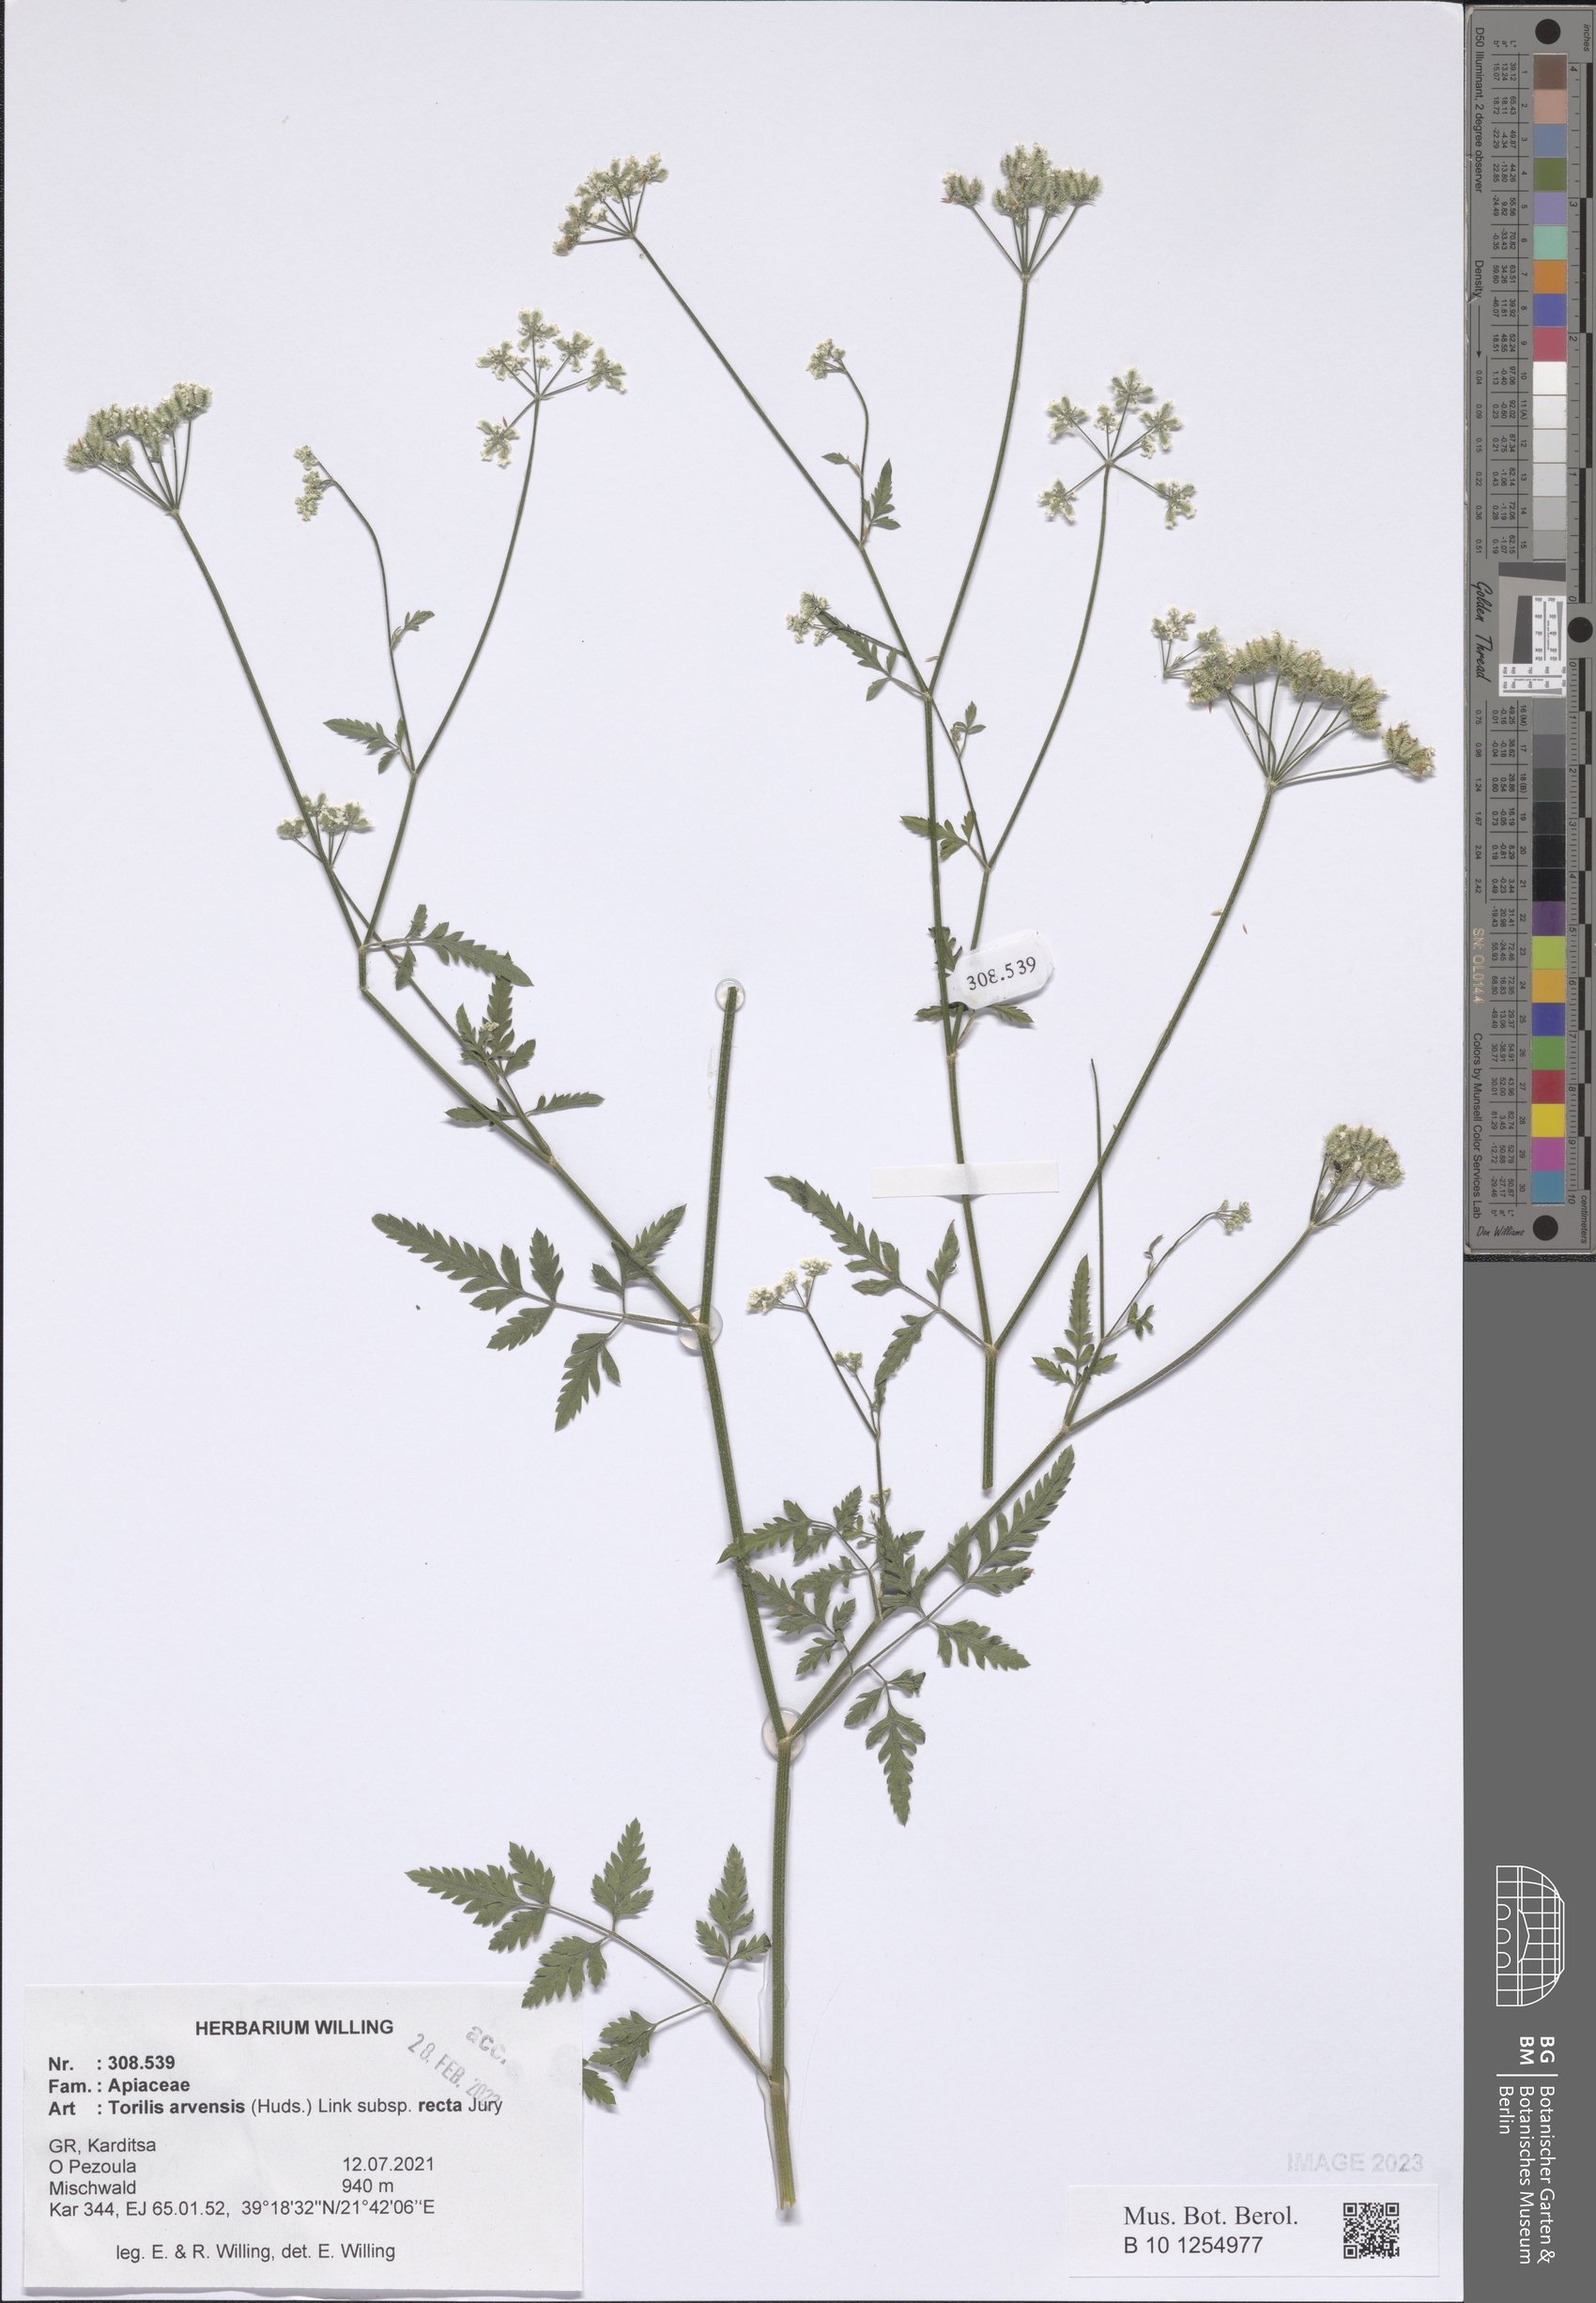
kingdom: Plantae
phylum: Tracheophyta
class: Magnoliopsida
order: Apiales
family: Apiaceae
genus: Torilis
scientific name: Torilis arvensis
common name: Spreading hedge-parsley
